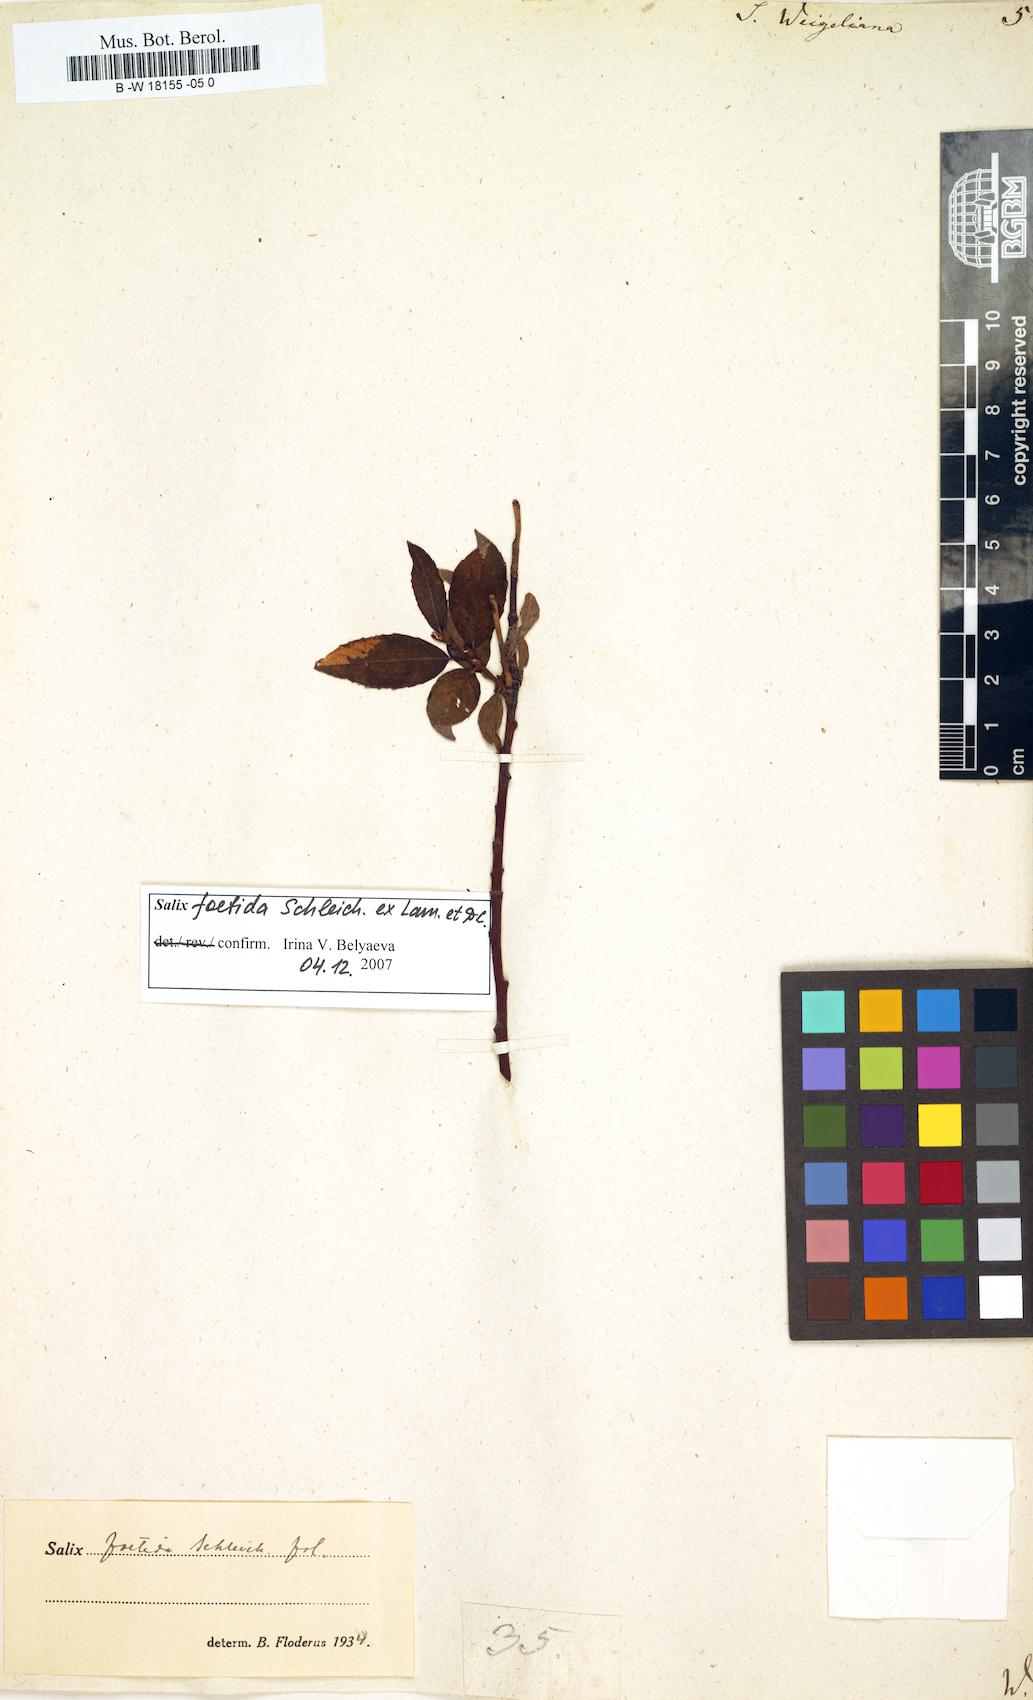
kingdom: Plantae
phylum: Tracheophyta
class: Magnoliopsida
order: Malpighiales
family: Salicaceae
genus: Salix
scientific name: Salix bicolor
